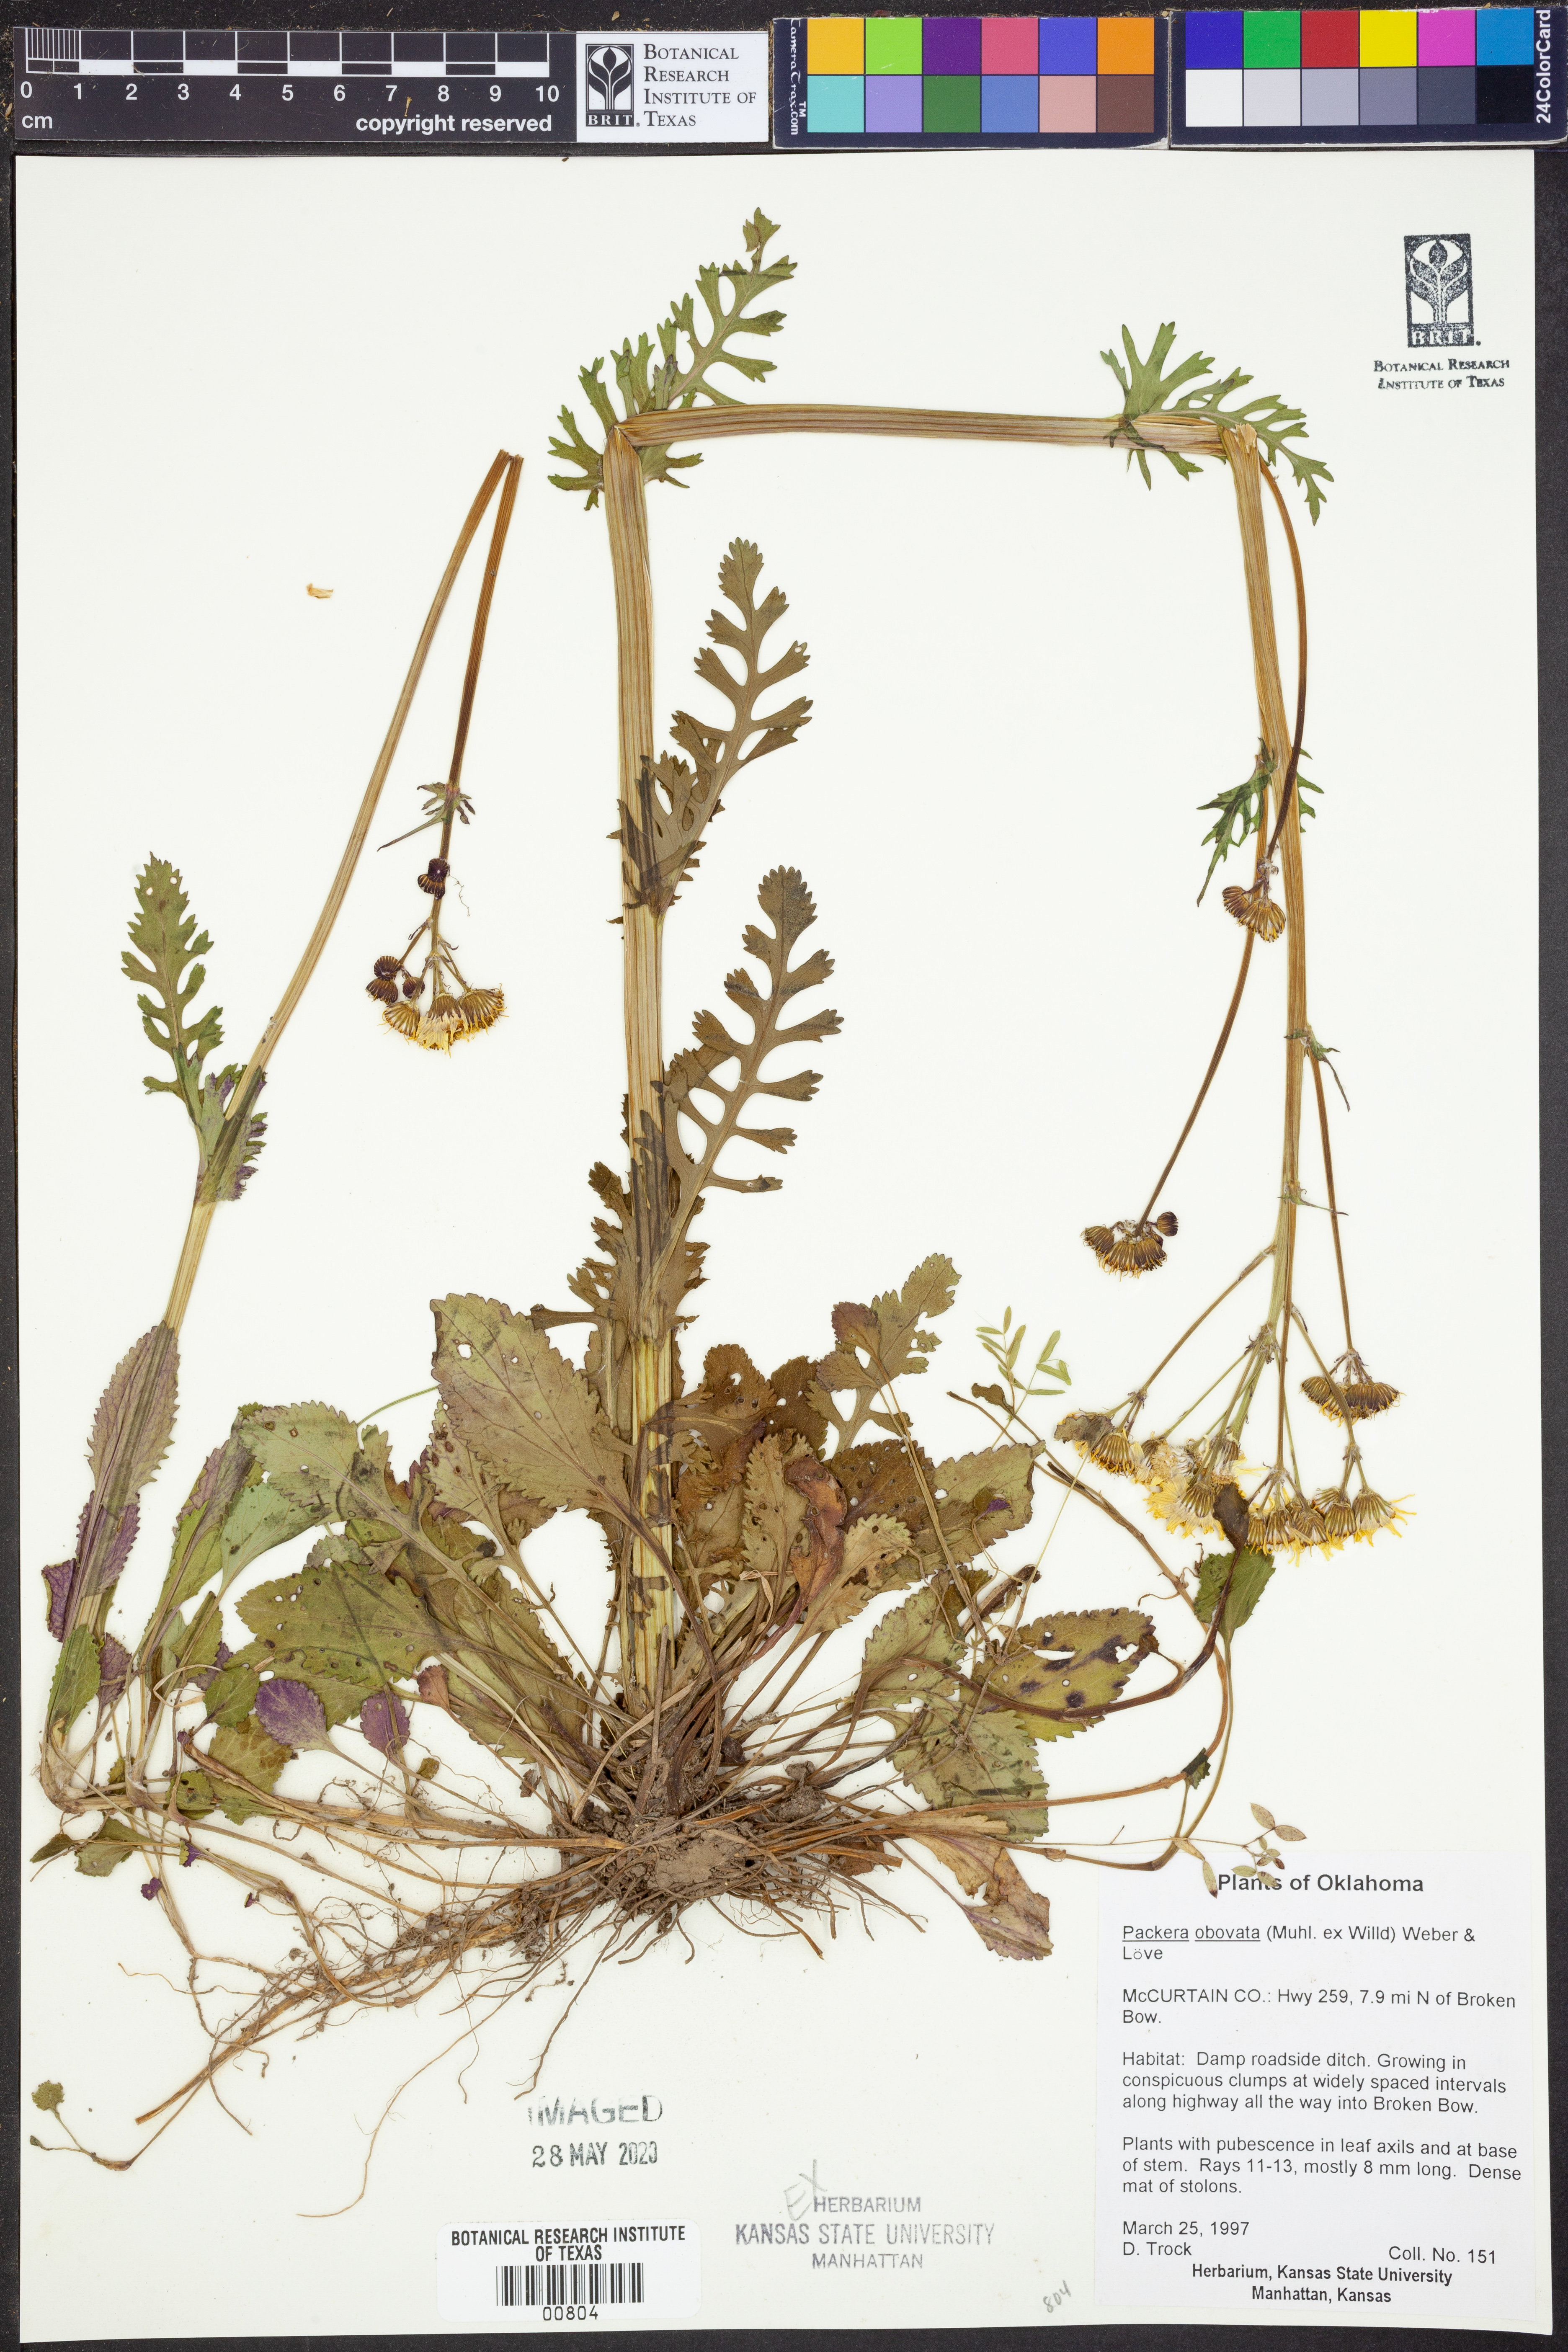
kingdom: Plantae
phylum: Tracheophyta
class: Magnoliopsida
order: Asterales
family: Asteraceae
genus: Packera
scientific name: Packera obovata
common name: Round-leaf ragwort
